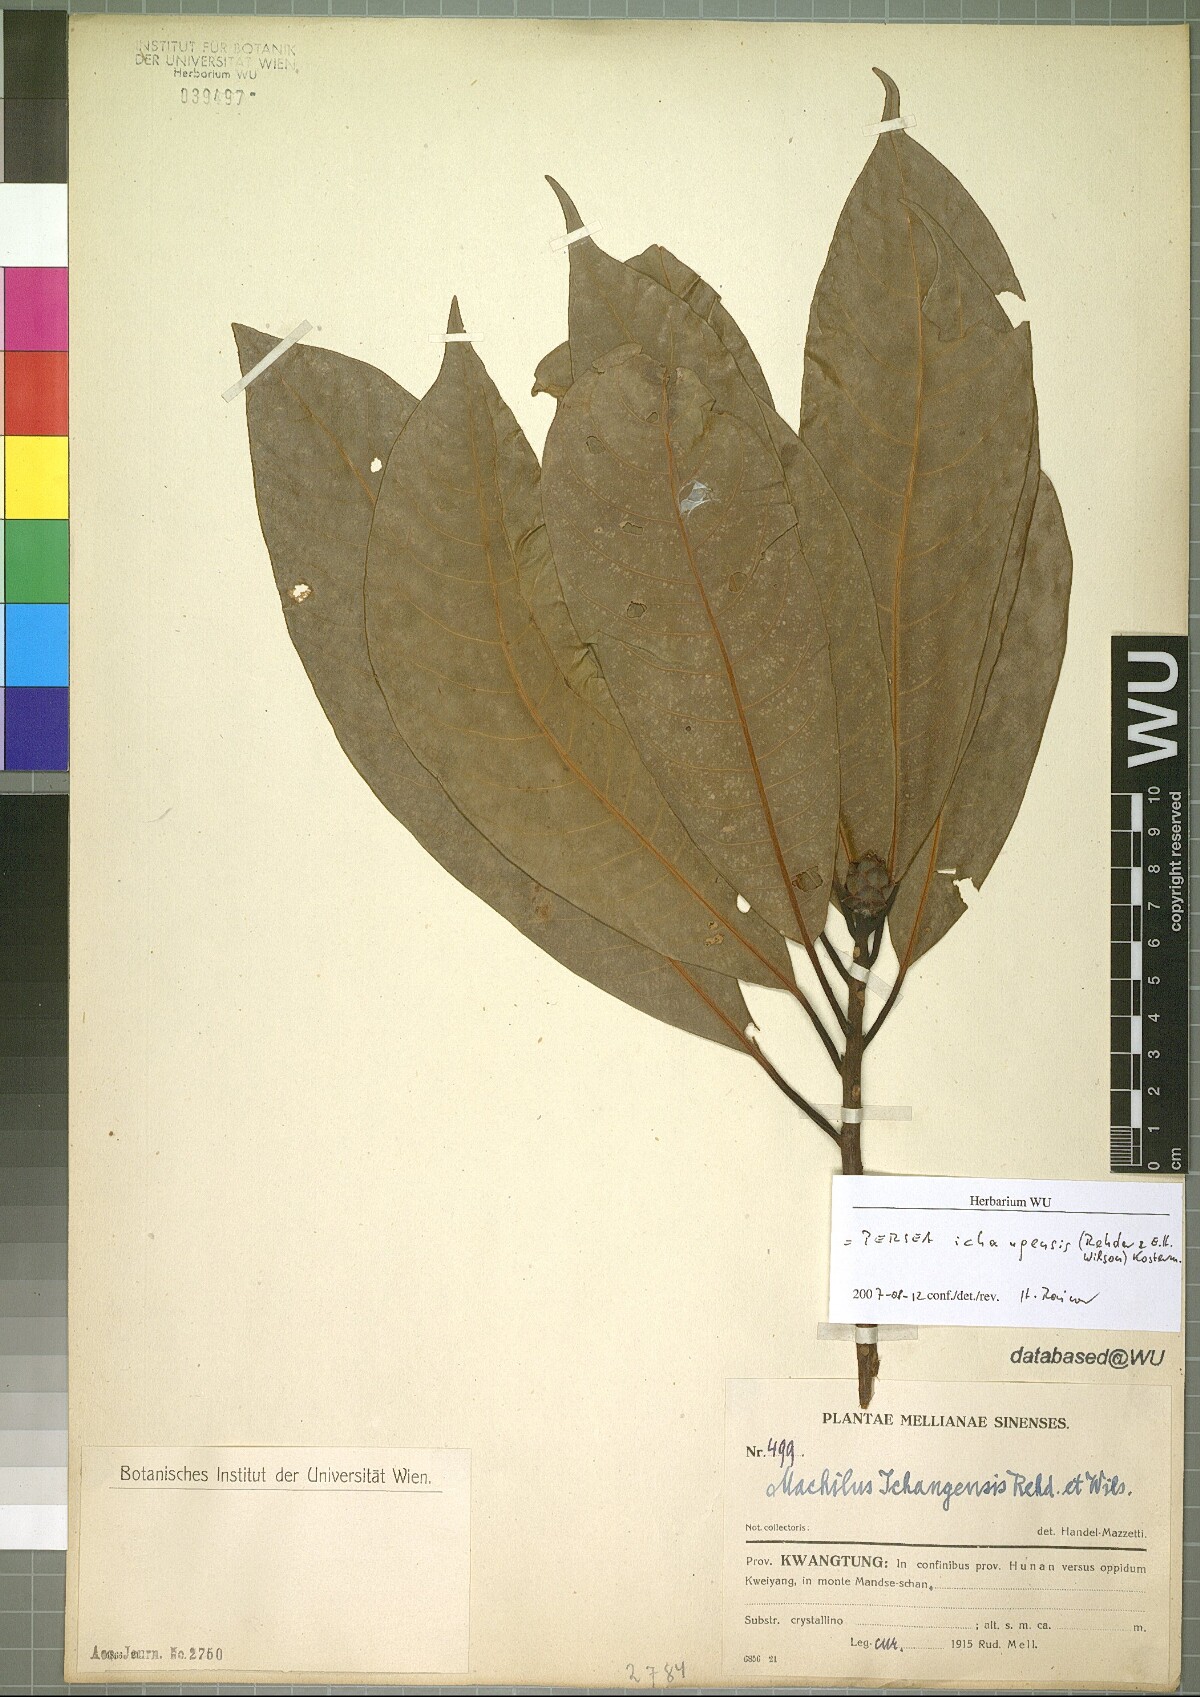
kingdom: Plantae
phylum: Tracheophyta
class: Magnoliopsida
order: Laurales
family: Lauraceae
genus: Machilus
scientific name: Machilus ichangensis
